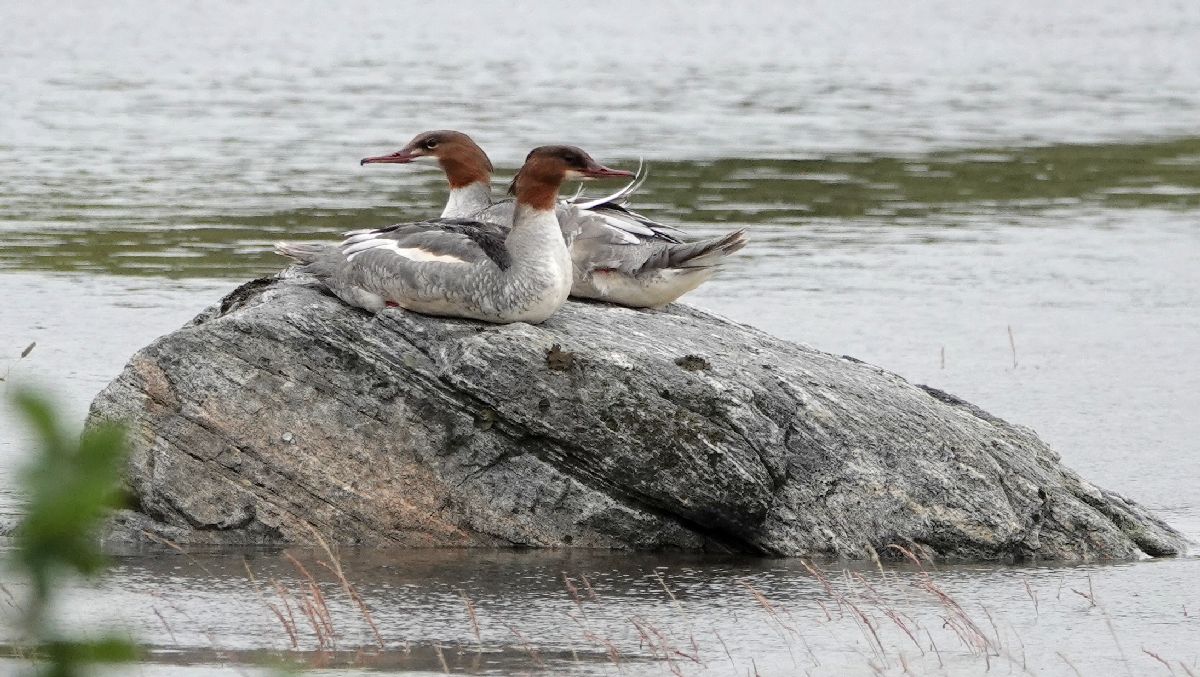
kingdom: Animalia
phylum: Chordata
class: Aves
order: Anseriformes
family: Anatidae
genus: Mergus
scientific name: Mergus merganser
